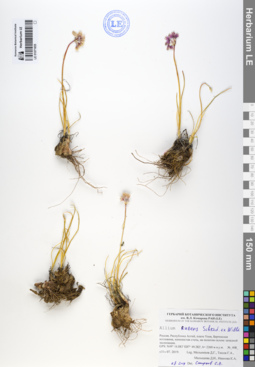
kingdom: Plantae
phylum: Tracheophyta
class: Liliopsida
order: Asparagales
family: Amaryllidaceae
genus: Allium
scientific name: Allium rubens
